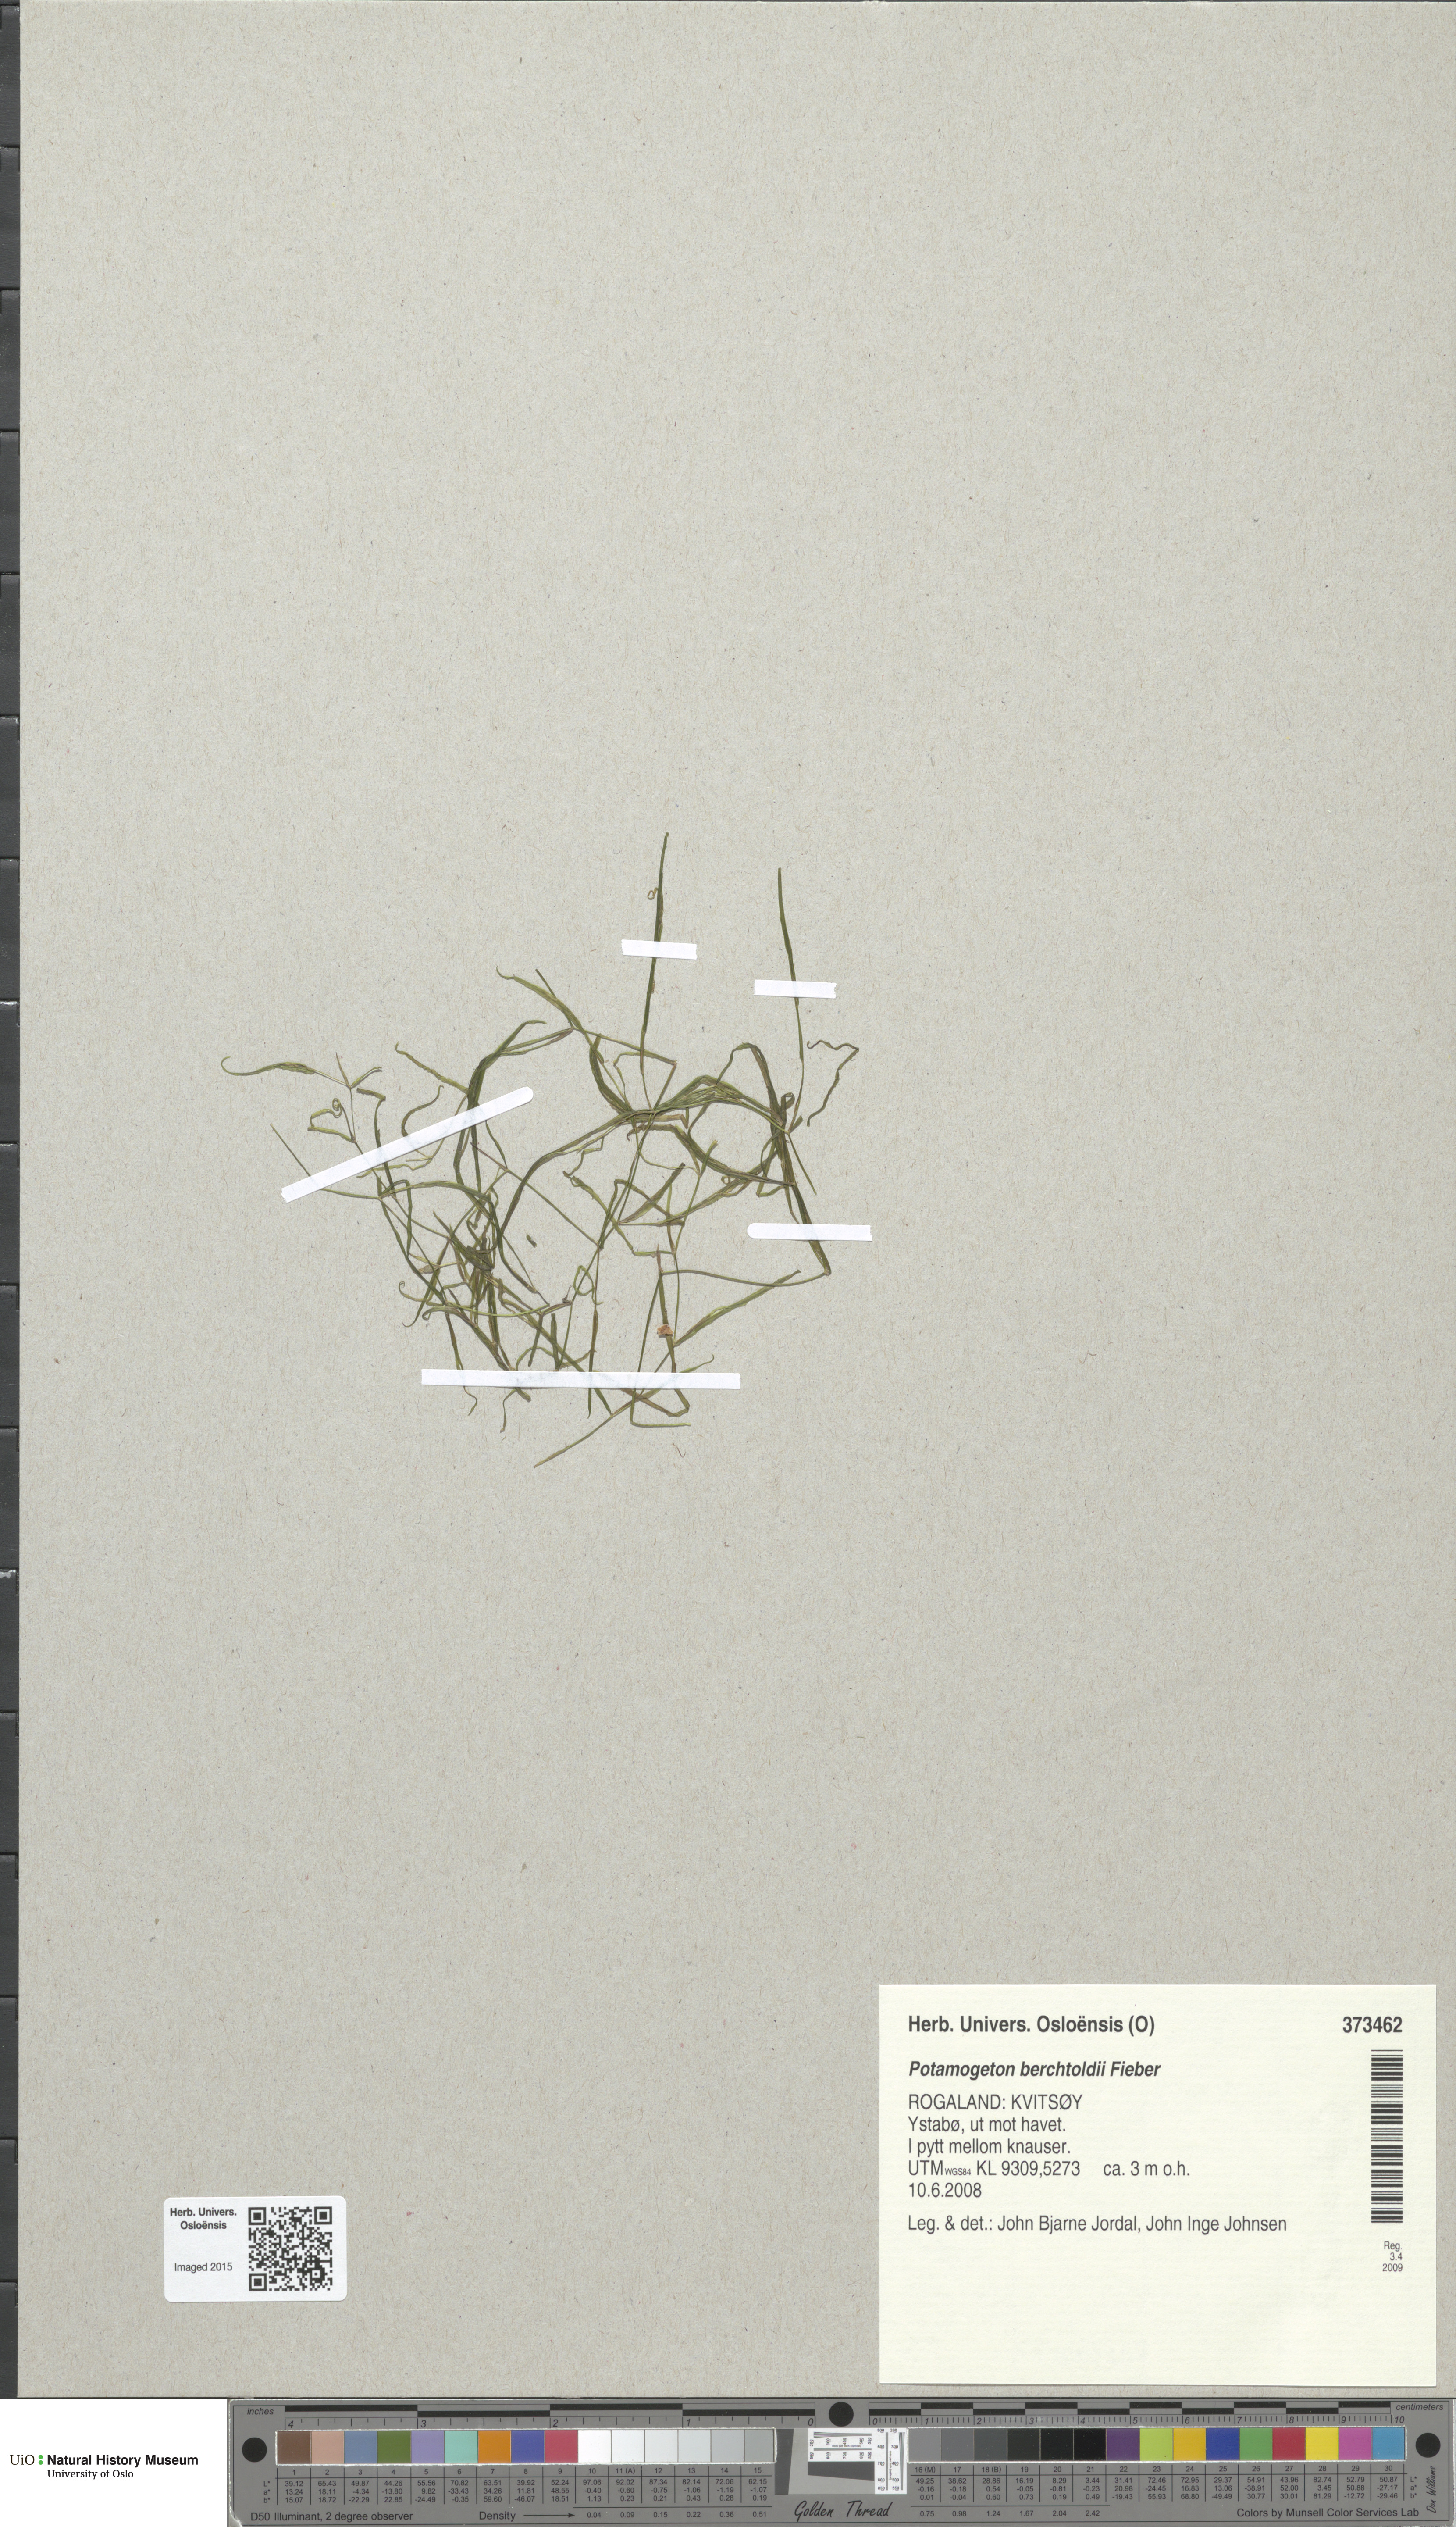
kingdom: Plantae
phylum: Tracheophyta
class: Liliopsida
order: Alismatales
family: Potamogetonaceae
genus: Potamogeton
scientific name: Potamogeton berchtoldii
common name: Small pondweed
